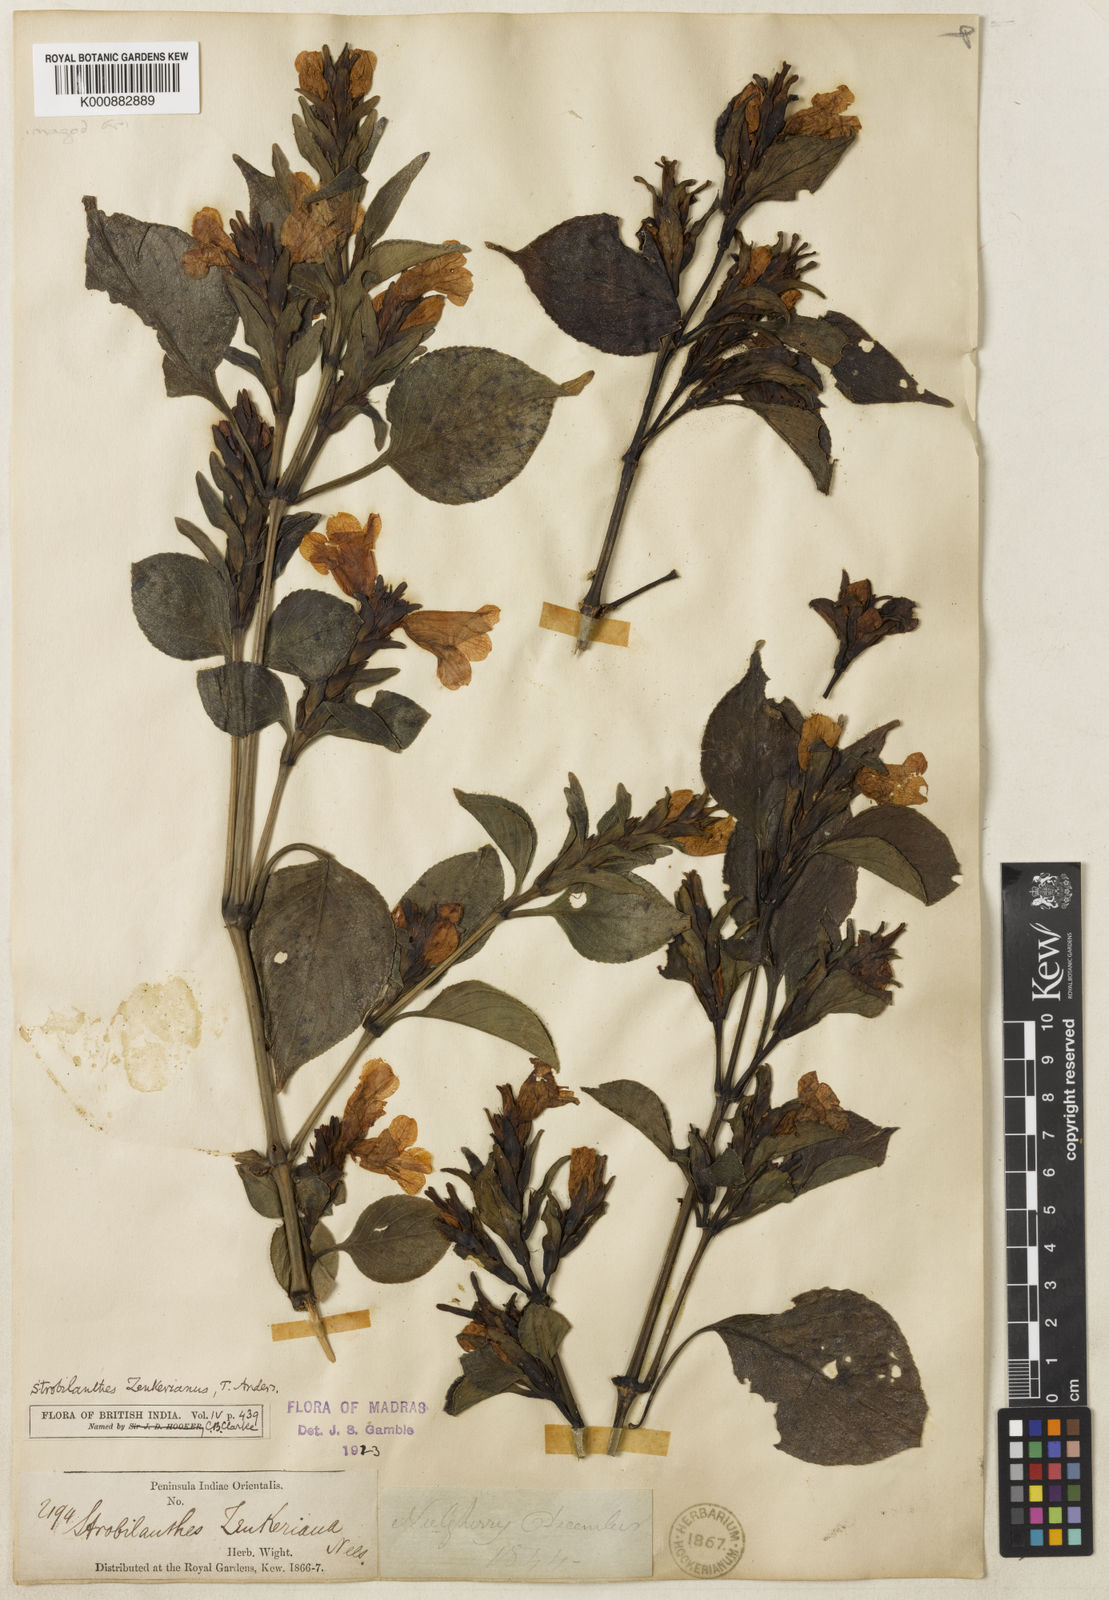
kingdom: Plantae
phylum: Tracheophyta
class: Magnoliopsida
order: Lamiales
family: Acanthaceae
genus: Strobilanthes
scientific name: Strobilanthes zenkeriana
